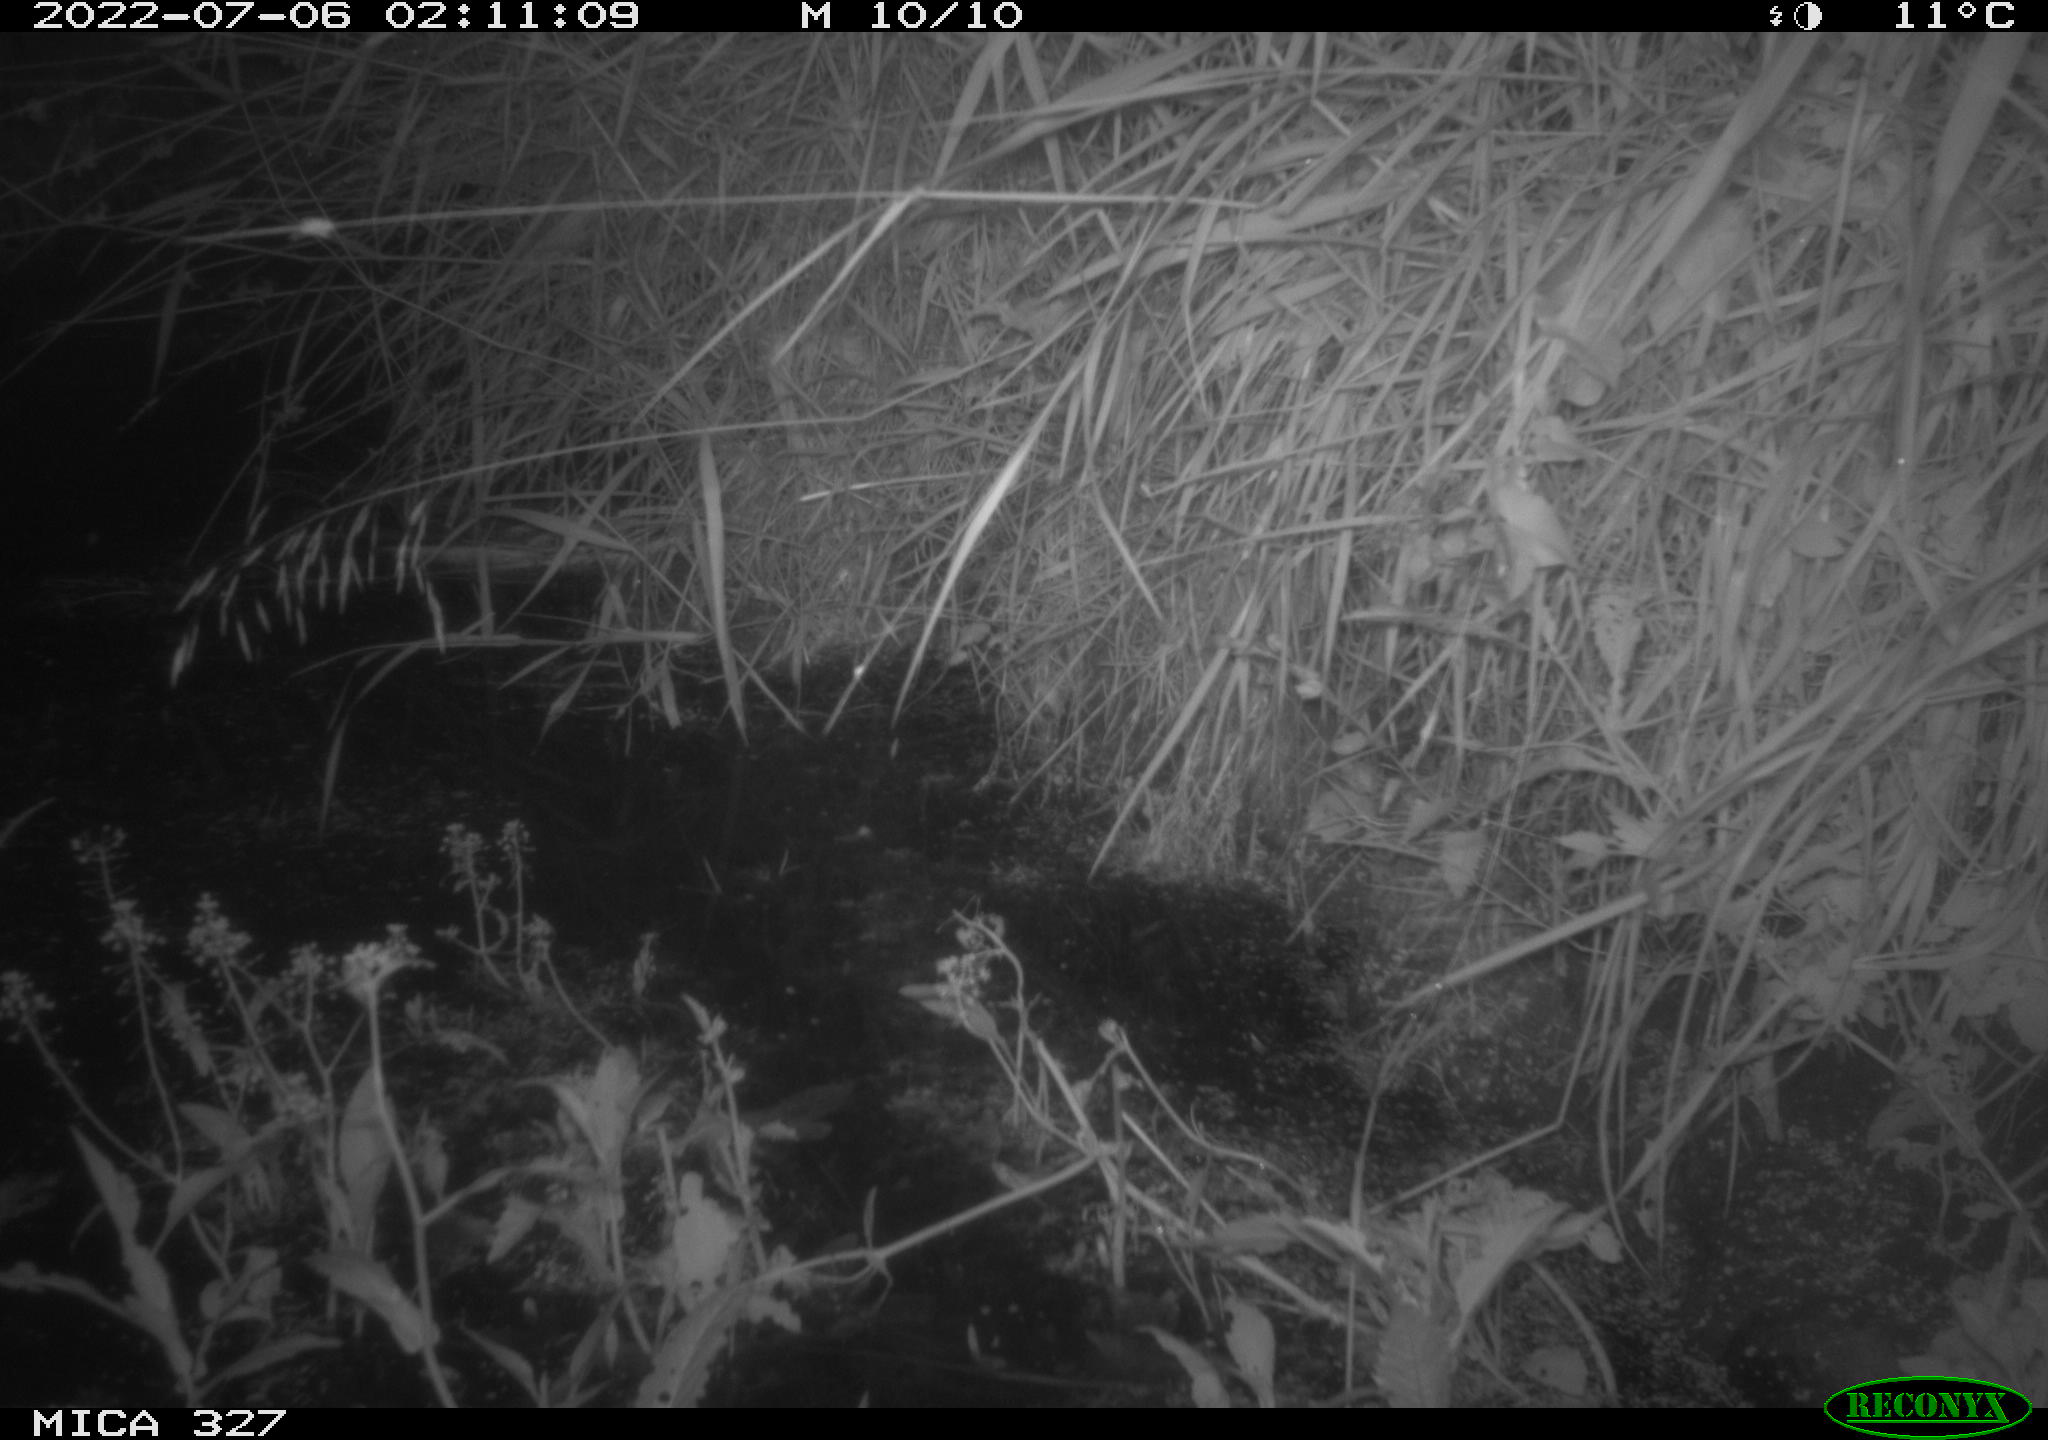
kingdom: Animalia
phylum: Chordata
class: Mammalia
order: Rodentia
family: Muridae
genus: Rattus
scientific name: Rattus norvegicus
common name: Brown rat
